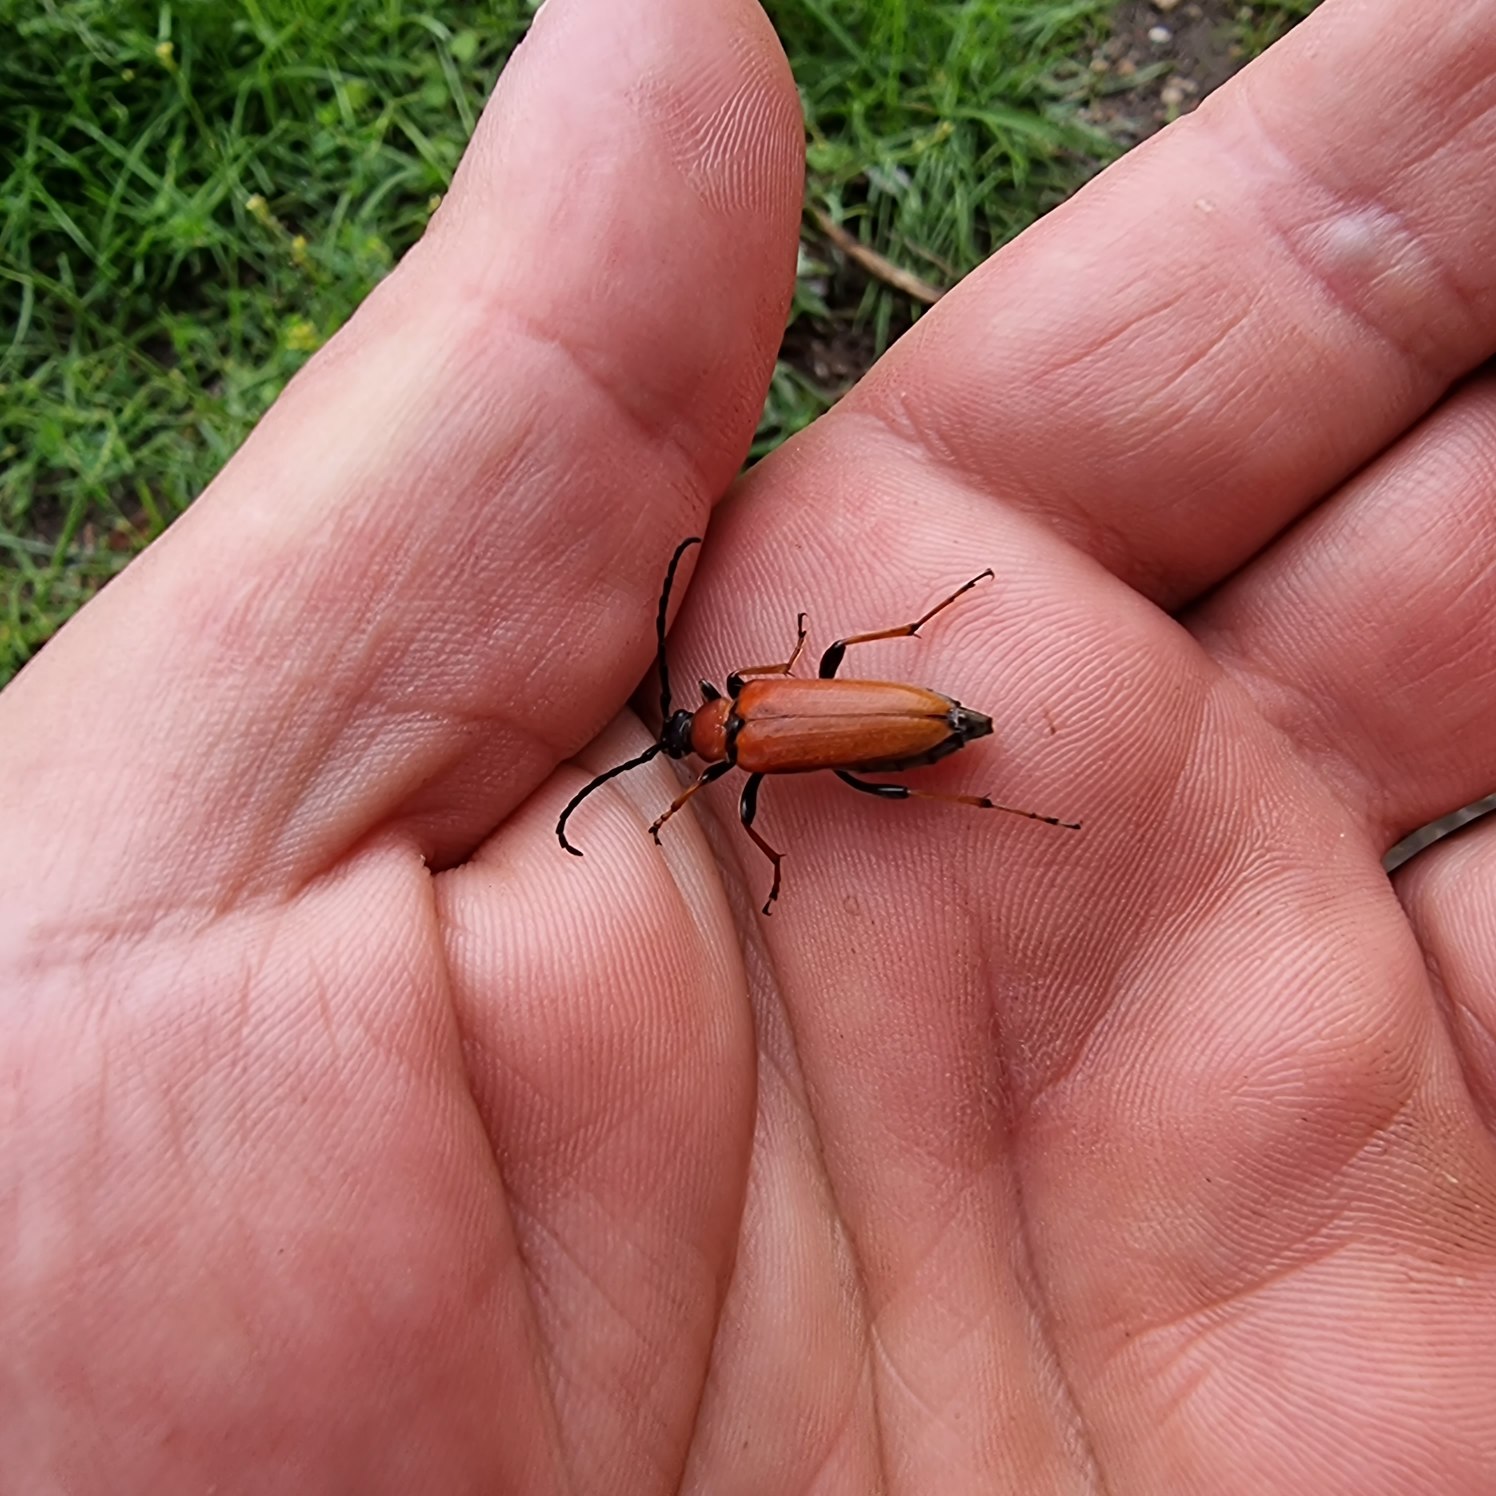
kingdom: Animalia
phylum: Arthropoda
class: Insecta
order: Coleoptera
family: Cerambycidae
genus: Stictoleptura
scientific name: Stictoleptura rubra
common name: Rød blomsterbuk
